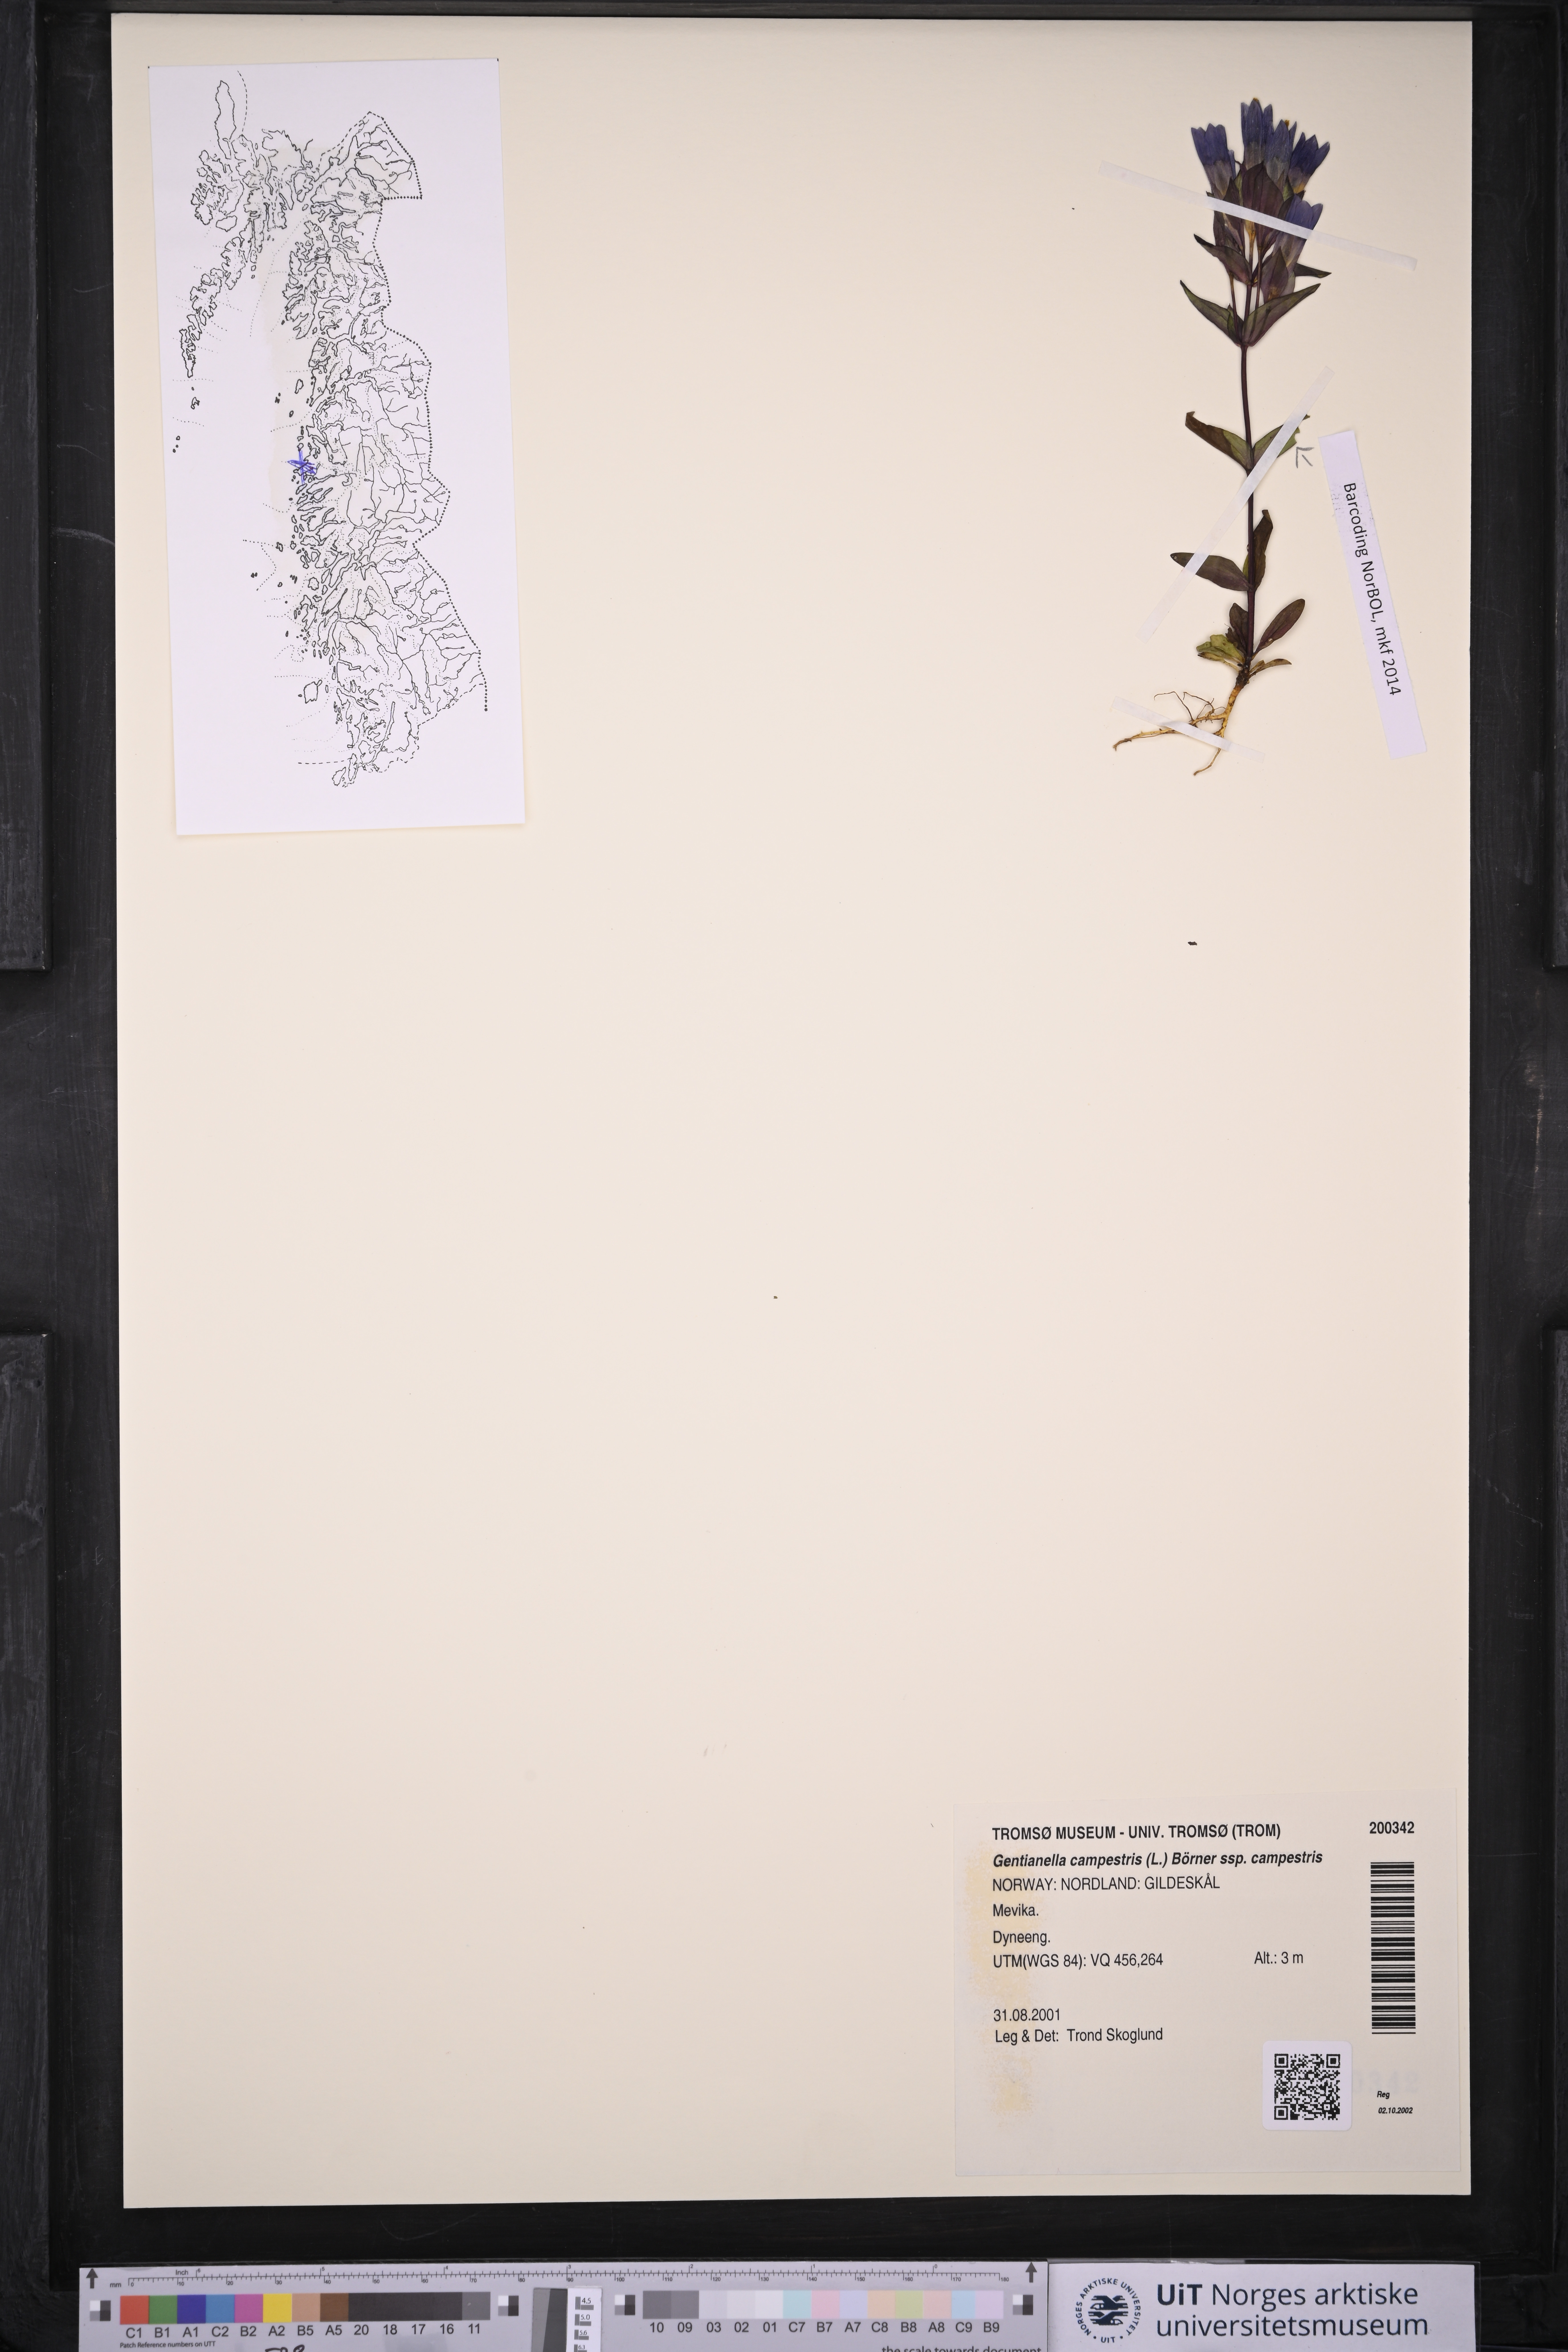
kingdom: Plantae
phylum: Tracheophyta
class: Magnoliopsida
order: Gentianales
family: Gentianaceae
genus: Gentianella
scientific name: Gentianella campestris
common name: Field gentian
